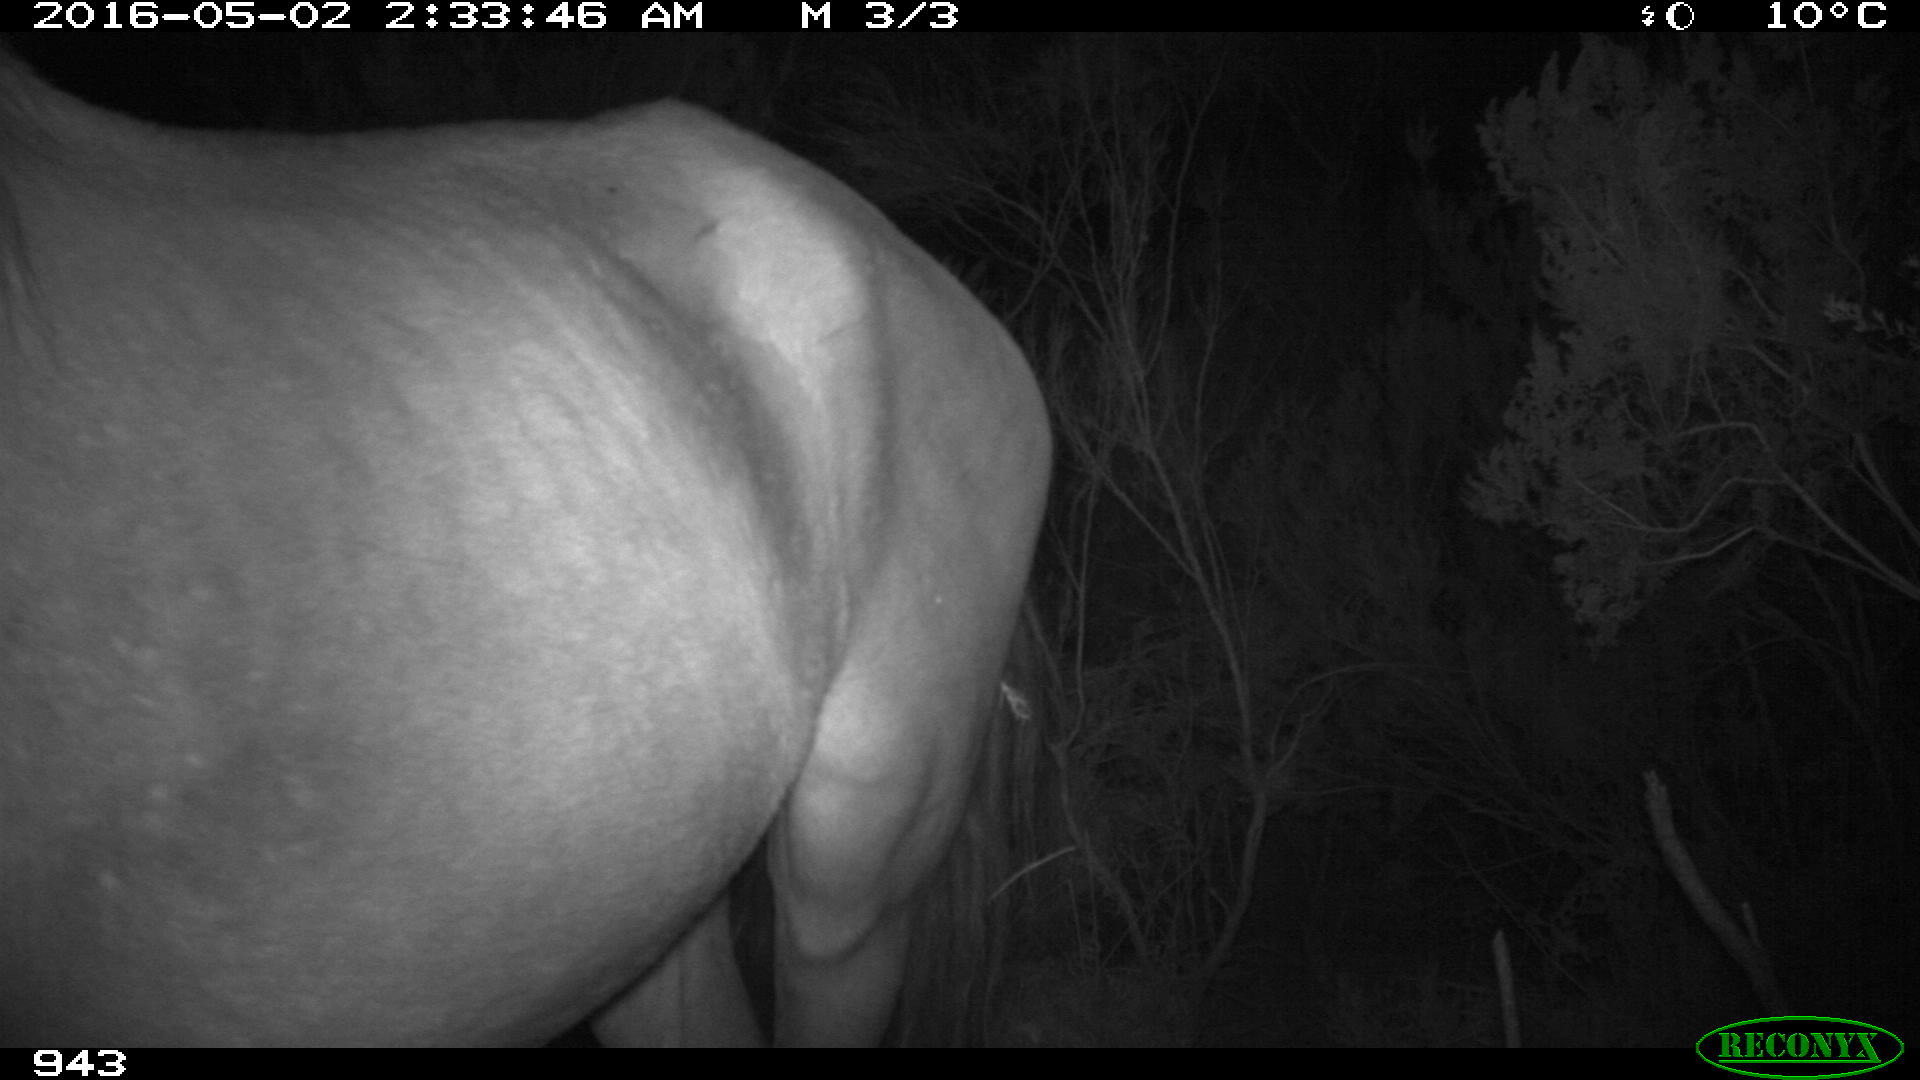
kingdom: Animalia
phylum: Chordata
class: Mammalia
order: Perissodactyla
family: Equidae
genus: Equus
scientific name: Equus caballus
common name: Horse
